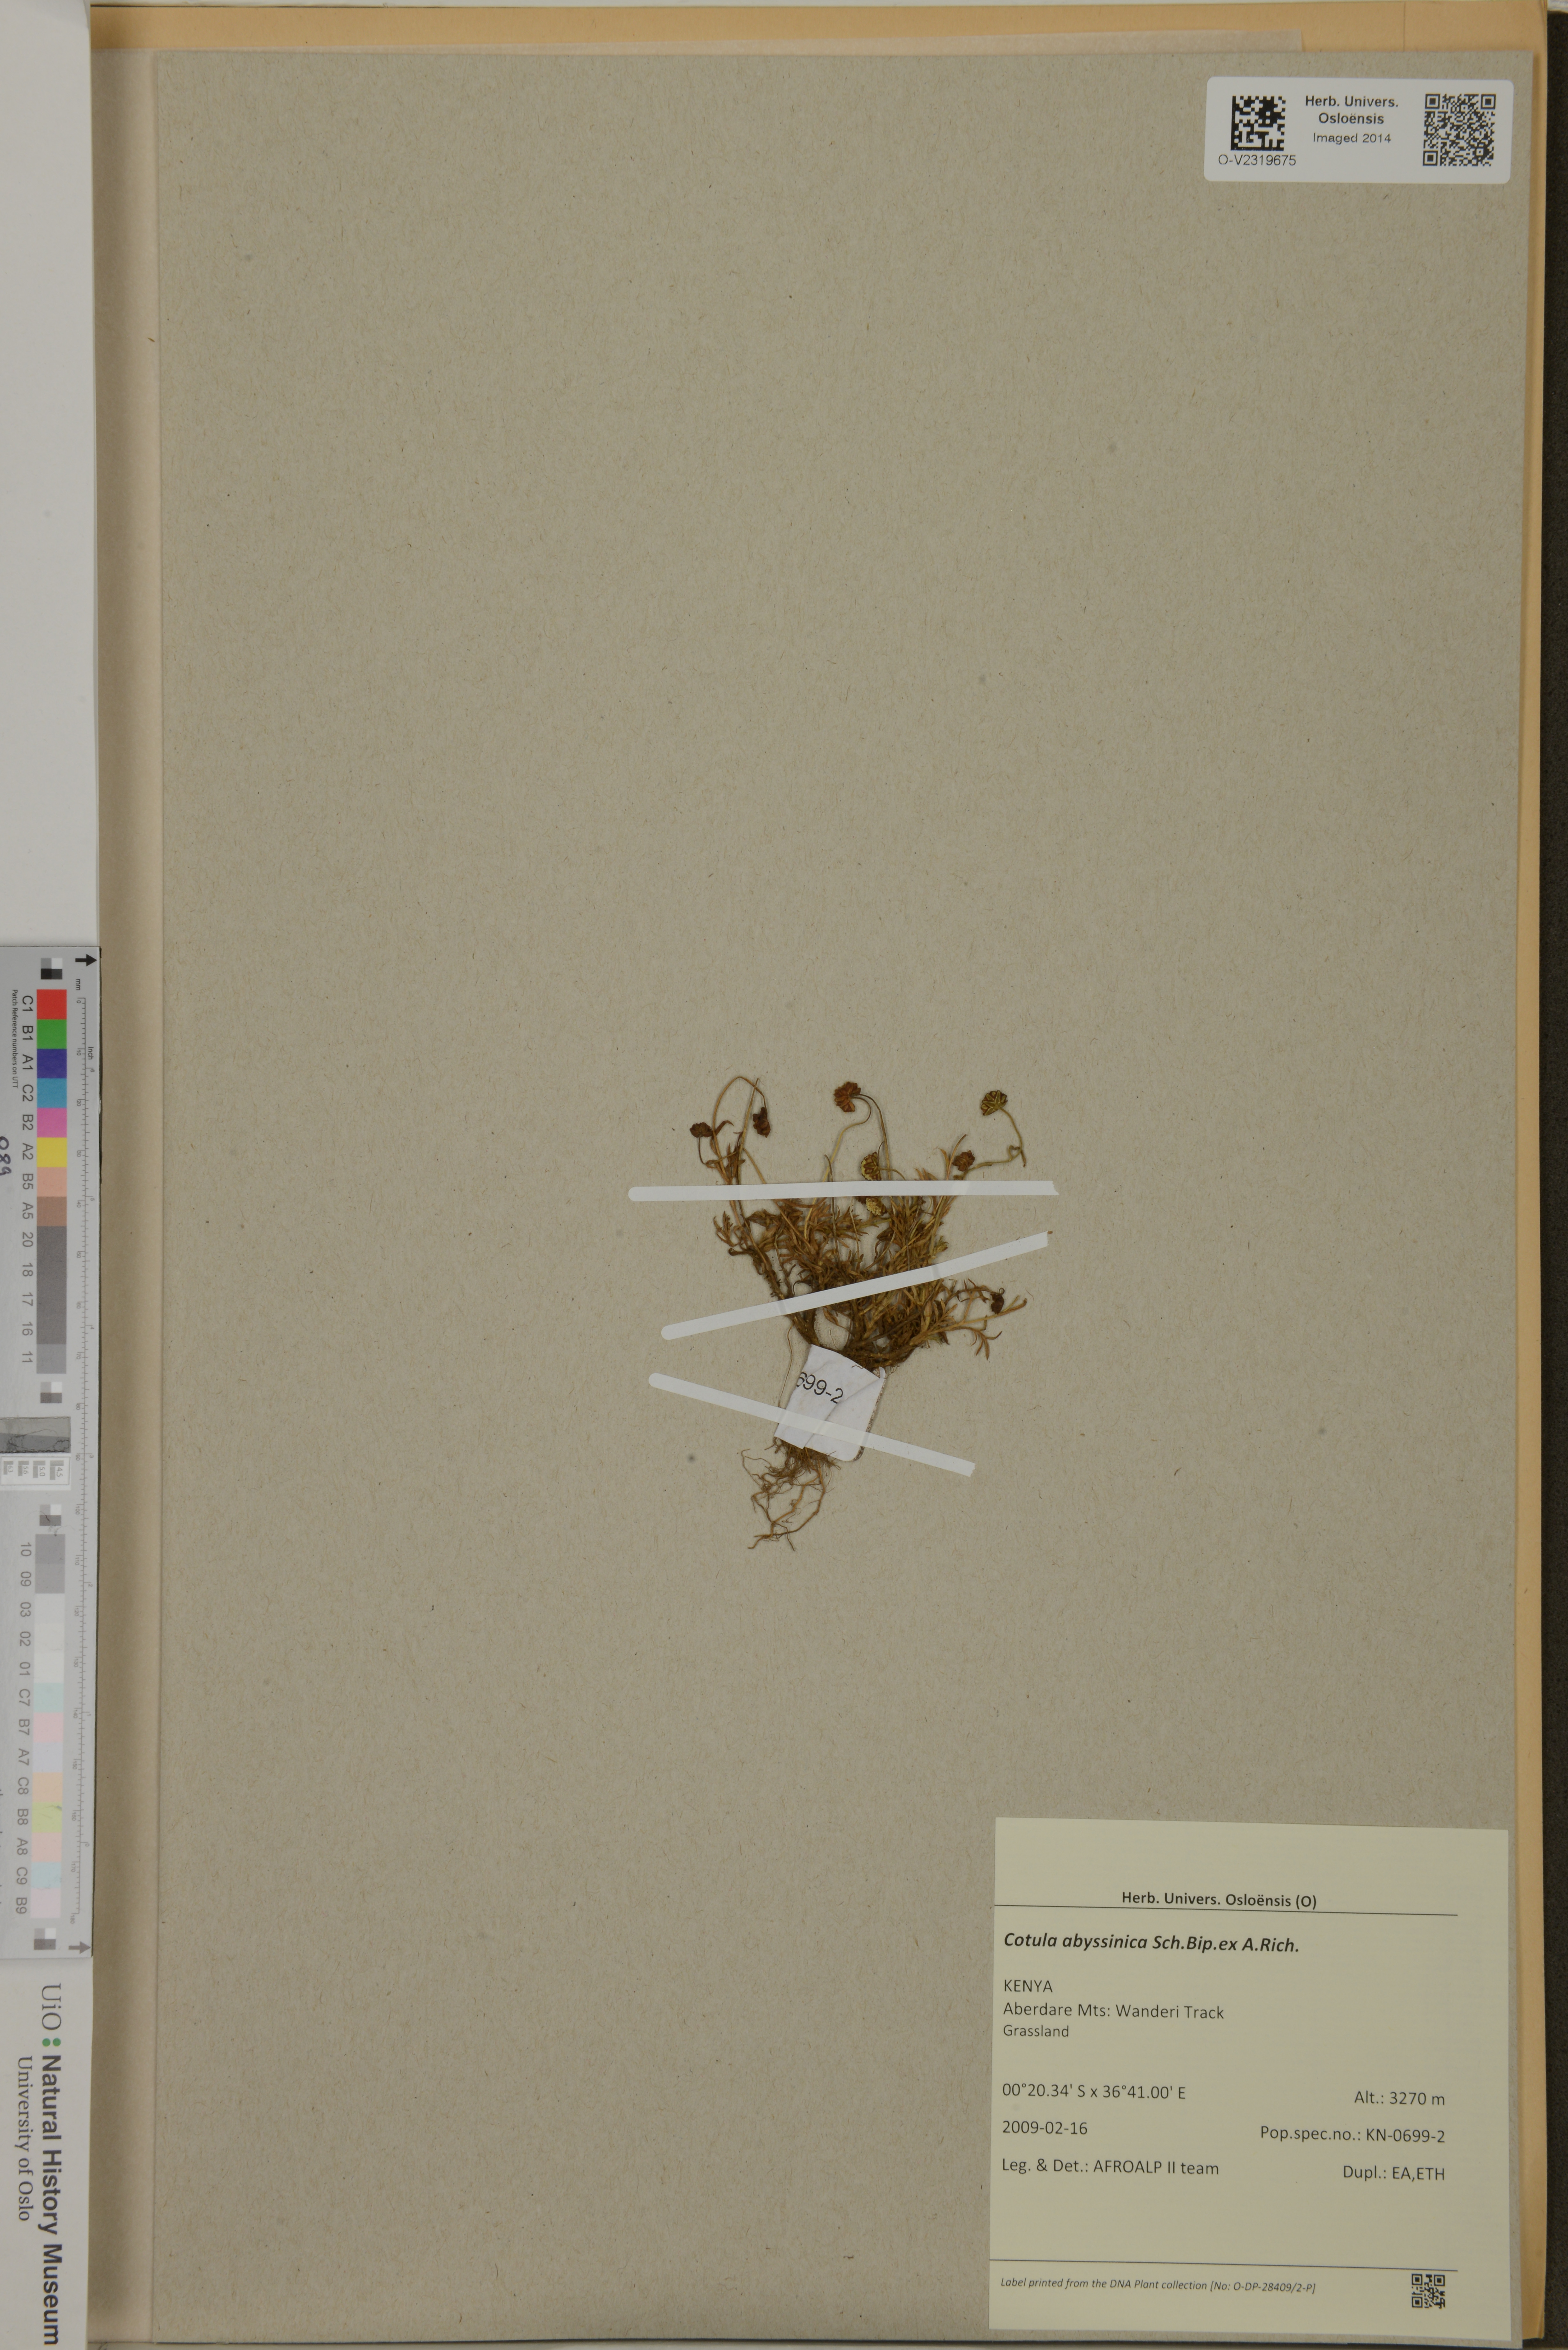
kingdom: Plantae
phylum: Tracheophyta
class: Magnoliopsida
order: Asterales
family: Asteraceae
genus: Cotula
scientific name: Cotula abyssinica
